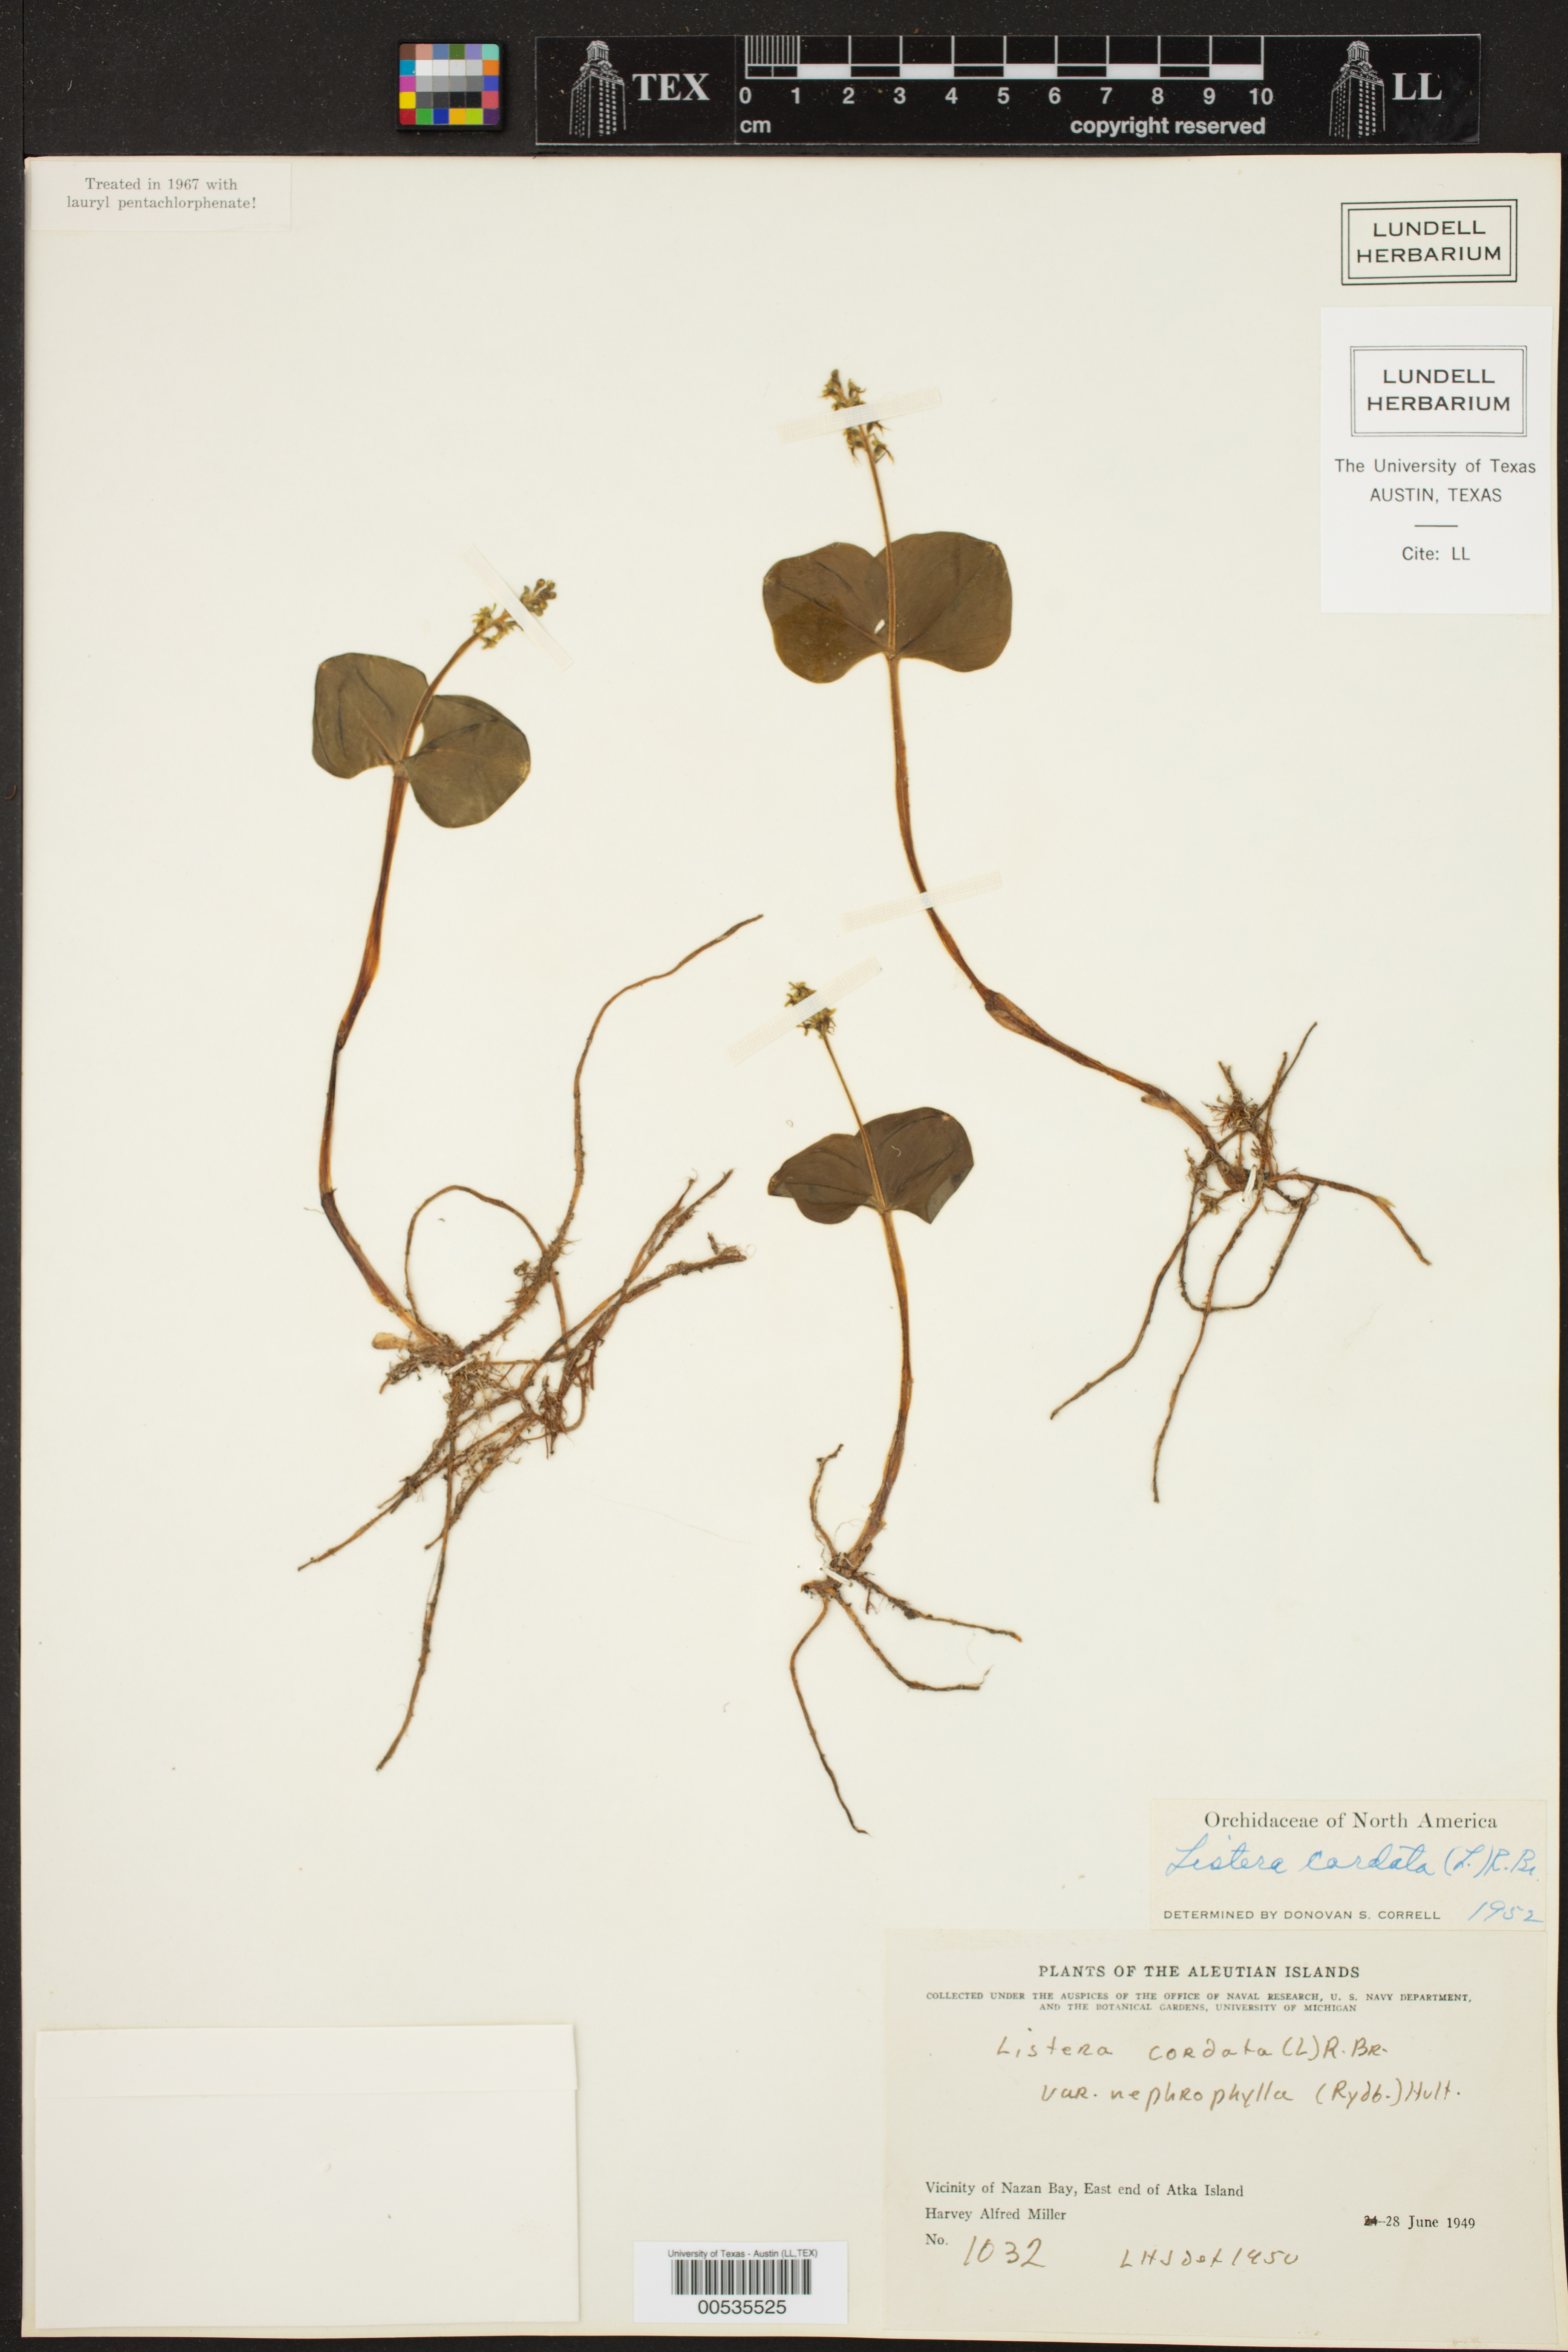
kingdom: Plantae
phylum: Tracheophyta
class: Liliopsida
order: Asparagales
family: Orchidaceae
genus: Neottia
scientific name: Neottia cordata
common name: Lesser twayblade
